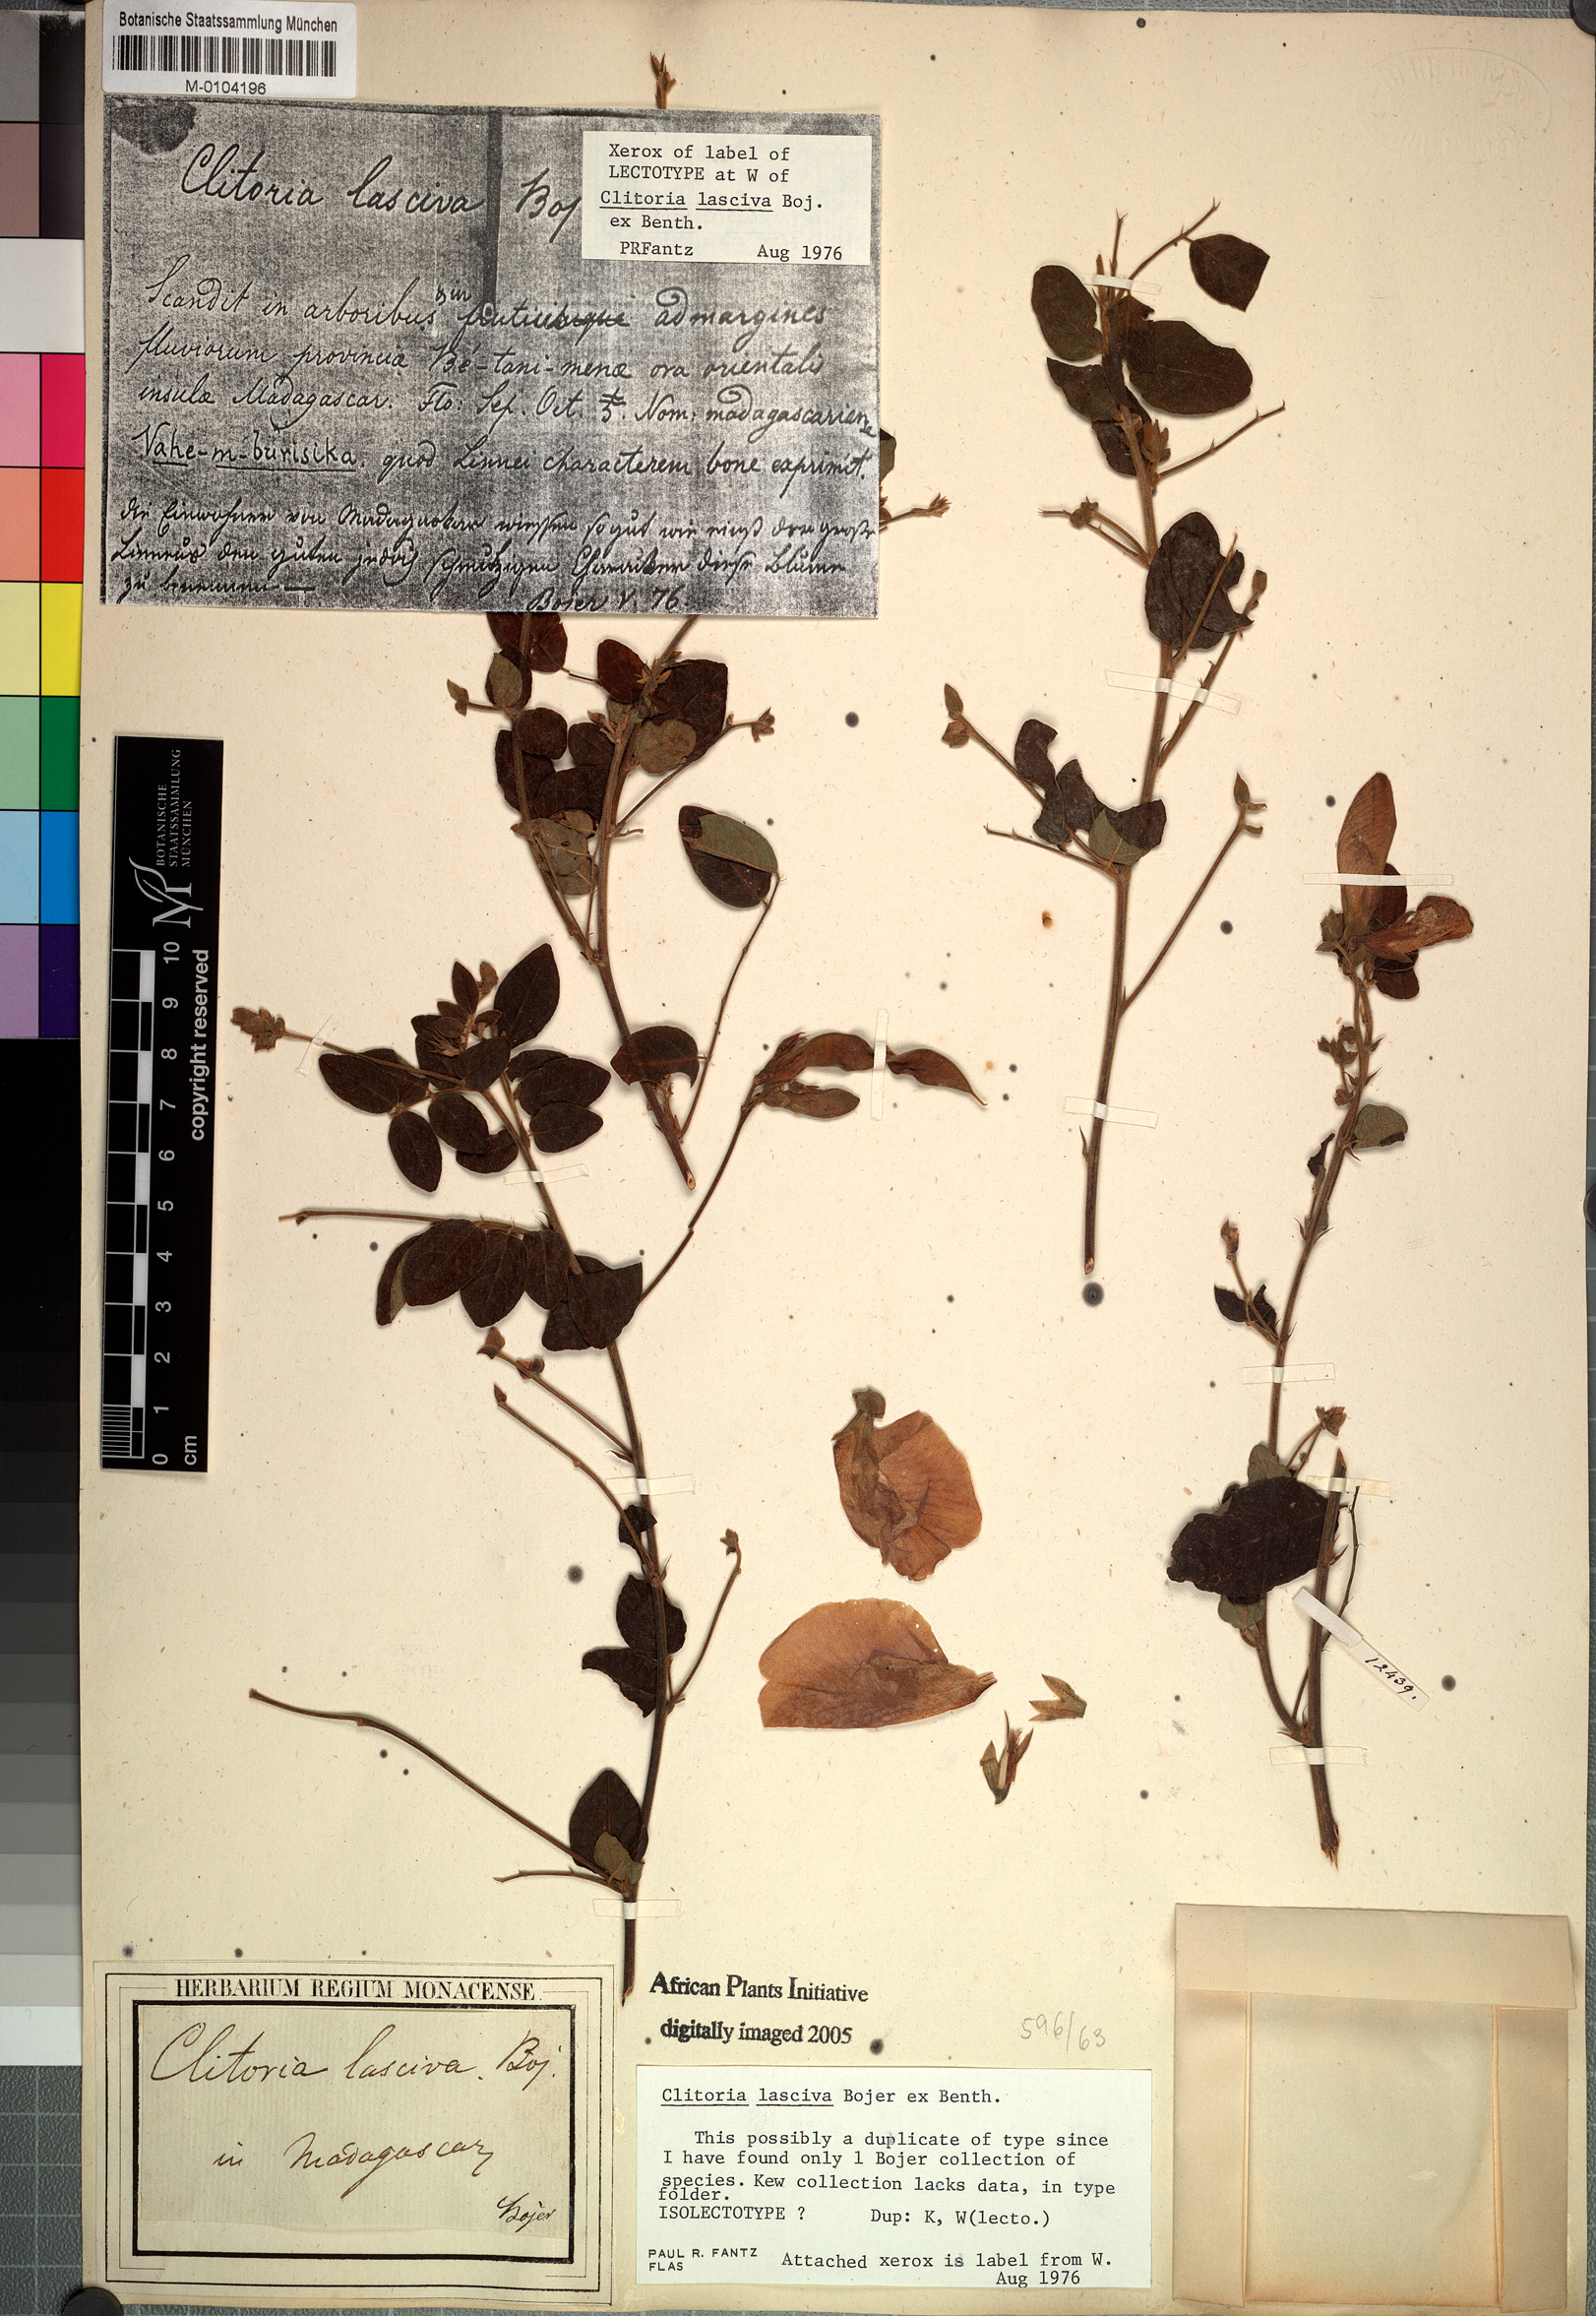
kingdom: Plantae
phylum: Tracheophyta
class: Magnoliopsida
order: Fabales
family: Fabaceae
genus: Clitoria
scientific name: Clitoria lasciva
